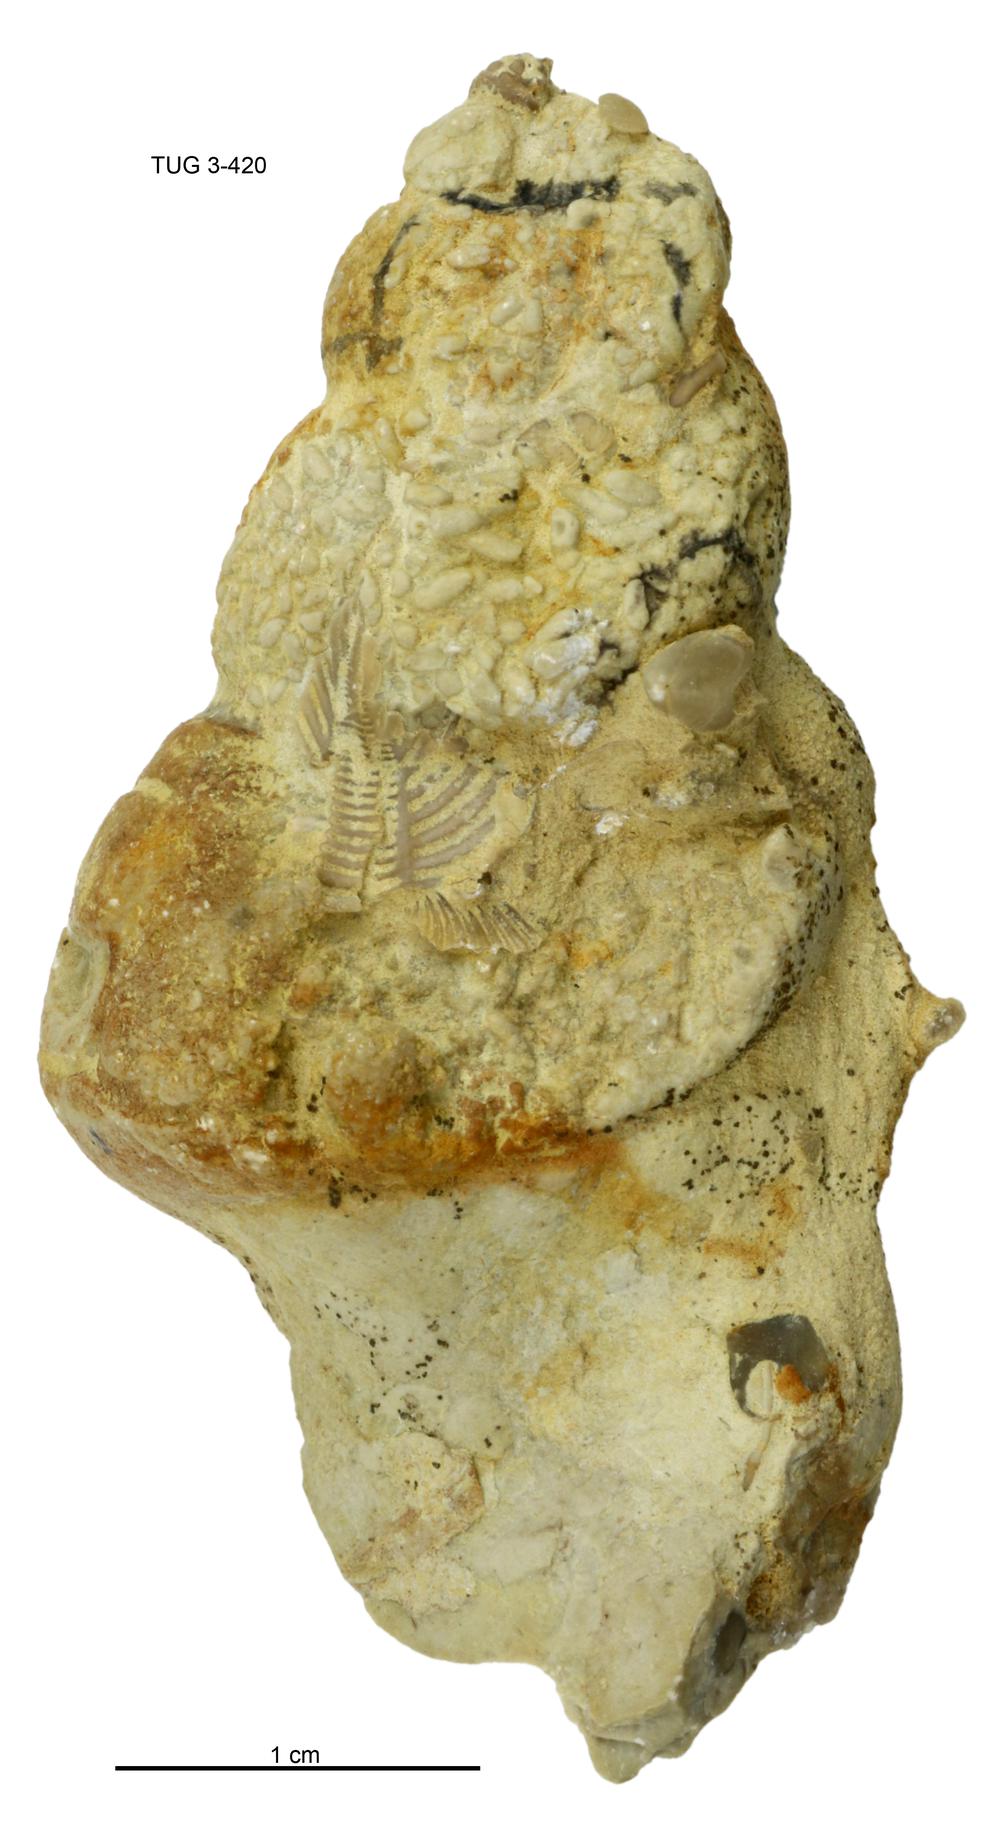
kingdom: Animalia
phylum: Mollusca
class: Gastropoda
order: Pleurotomariida
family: Murchisoniidae
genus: Murchisonia
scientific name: Murchisonia insignis
